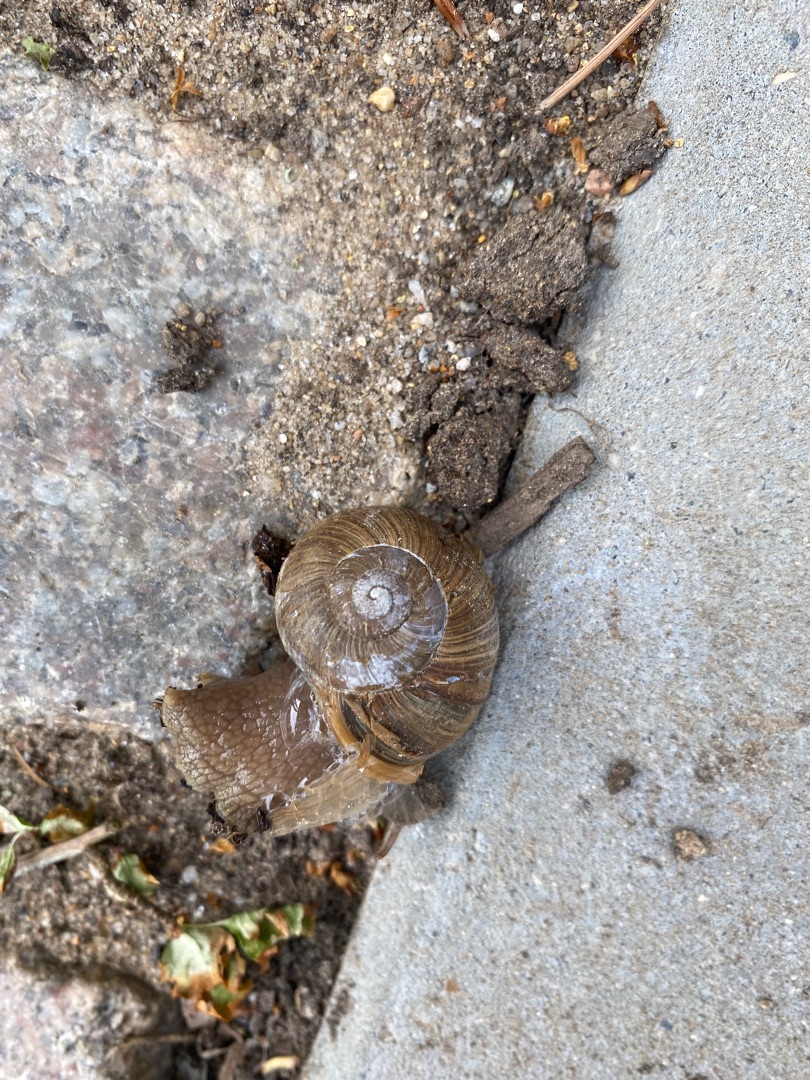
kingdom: Animalia
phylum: Mollusca
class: Gastropoda
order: Stylommatophora
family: Helicidae
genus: Helix
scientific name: Helix pomatia
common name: Vinbjergsnegl
